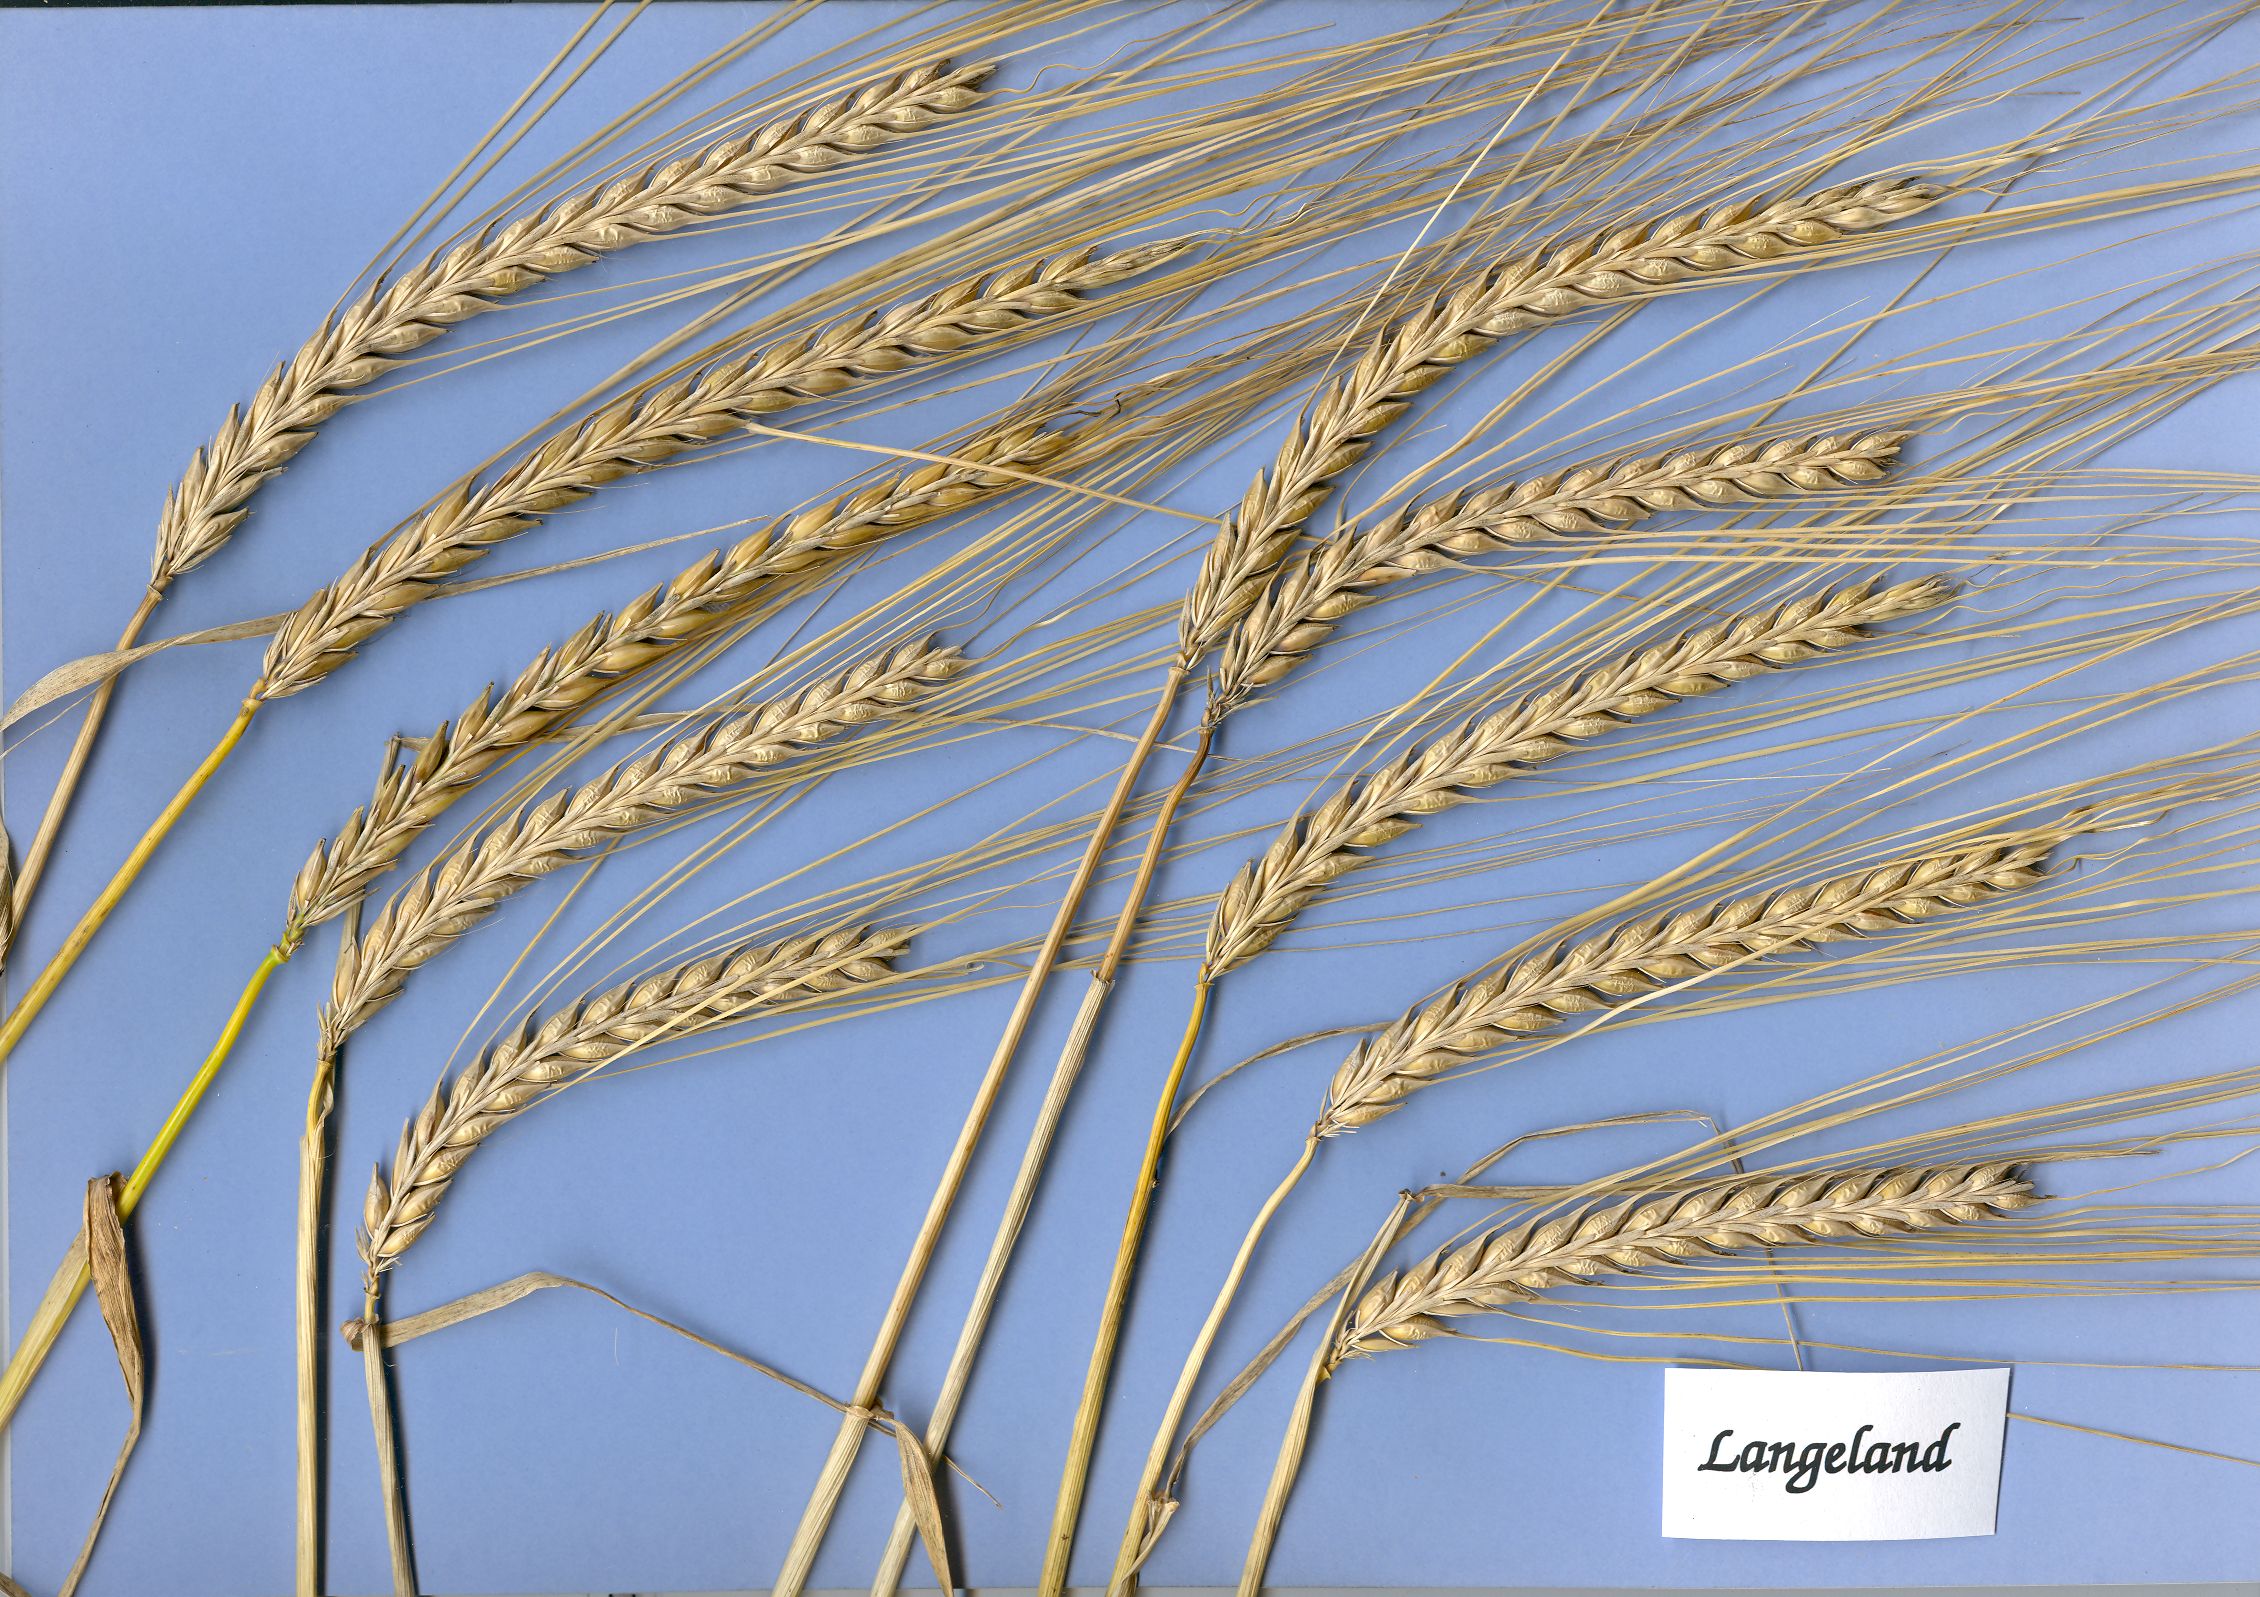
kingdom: Plantae
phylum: Tracheophyta
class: Liliopsida
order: Poales
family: Poaceae
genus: Hordeum
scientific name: Hordeum vulgare
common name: Common barley
